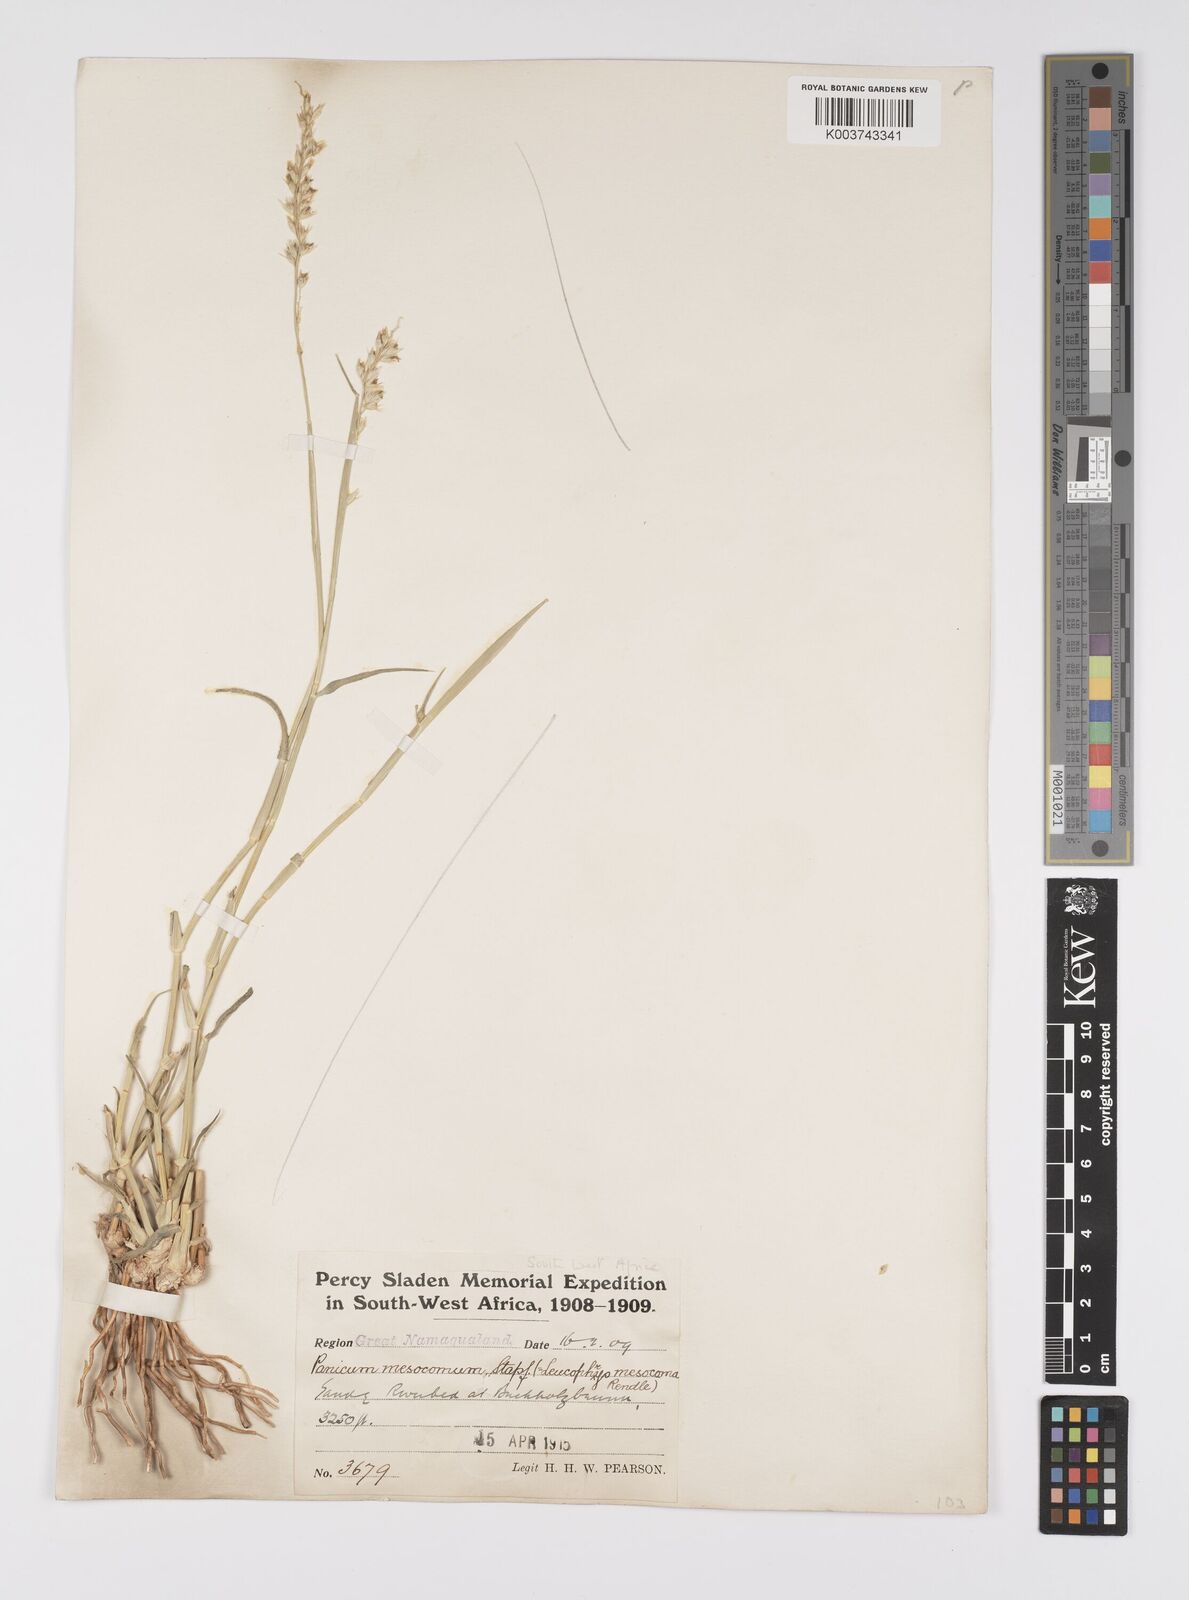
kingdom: Plantae
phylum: Tracheophyta
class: Liliopsida
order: Poales
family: Poaceae
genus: Urochloa
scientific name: Urochloa Brachiaria mesocoma
